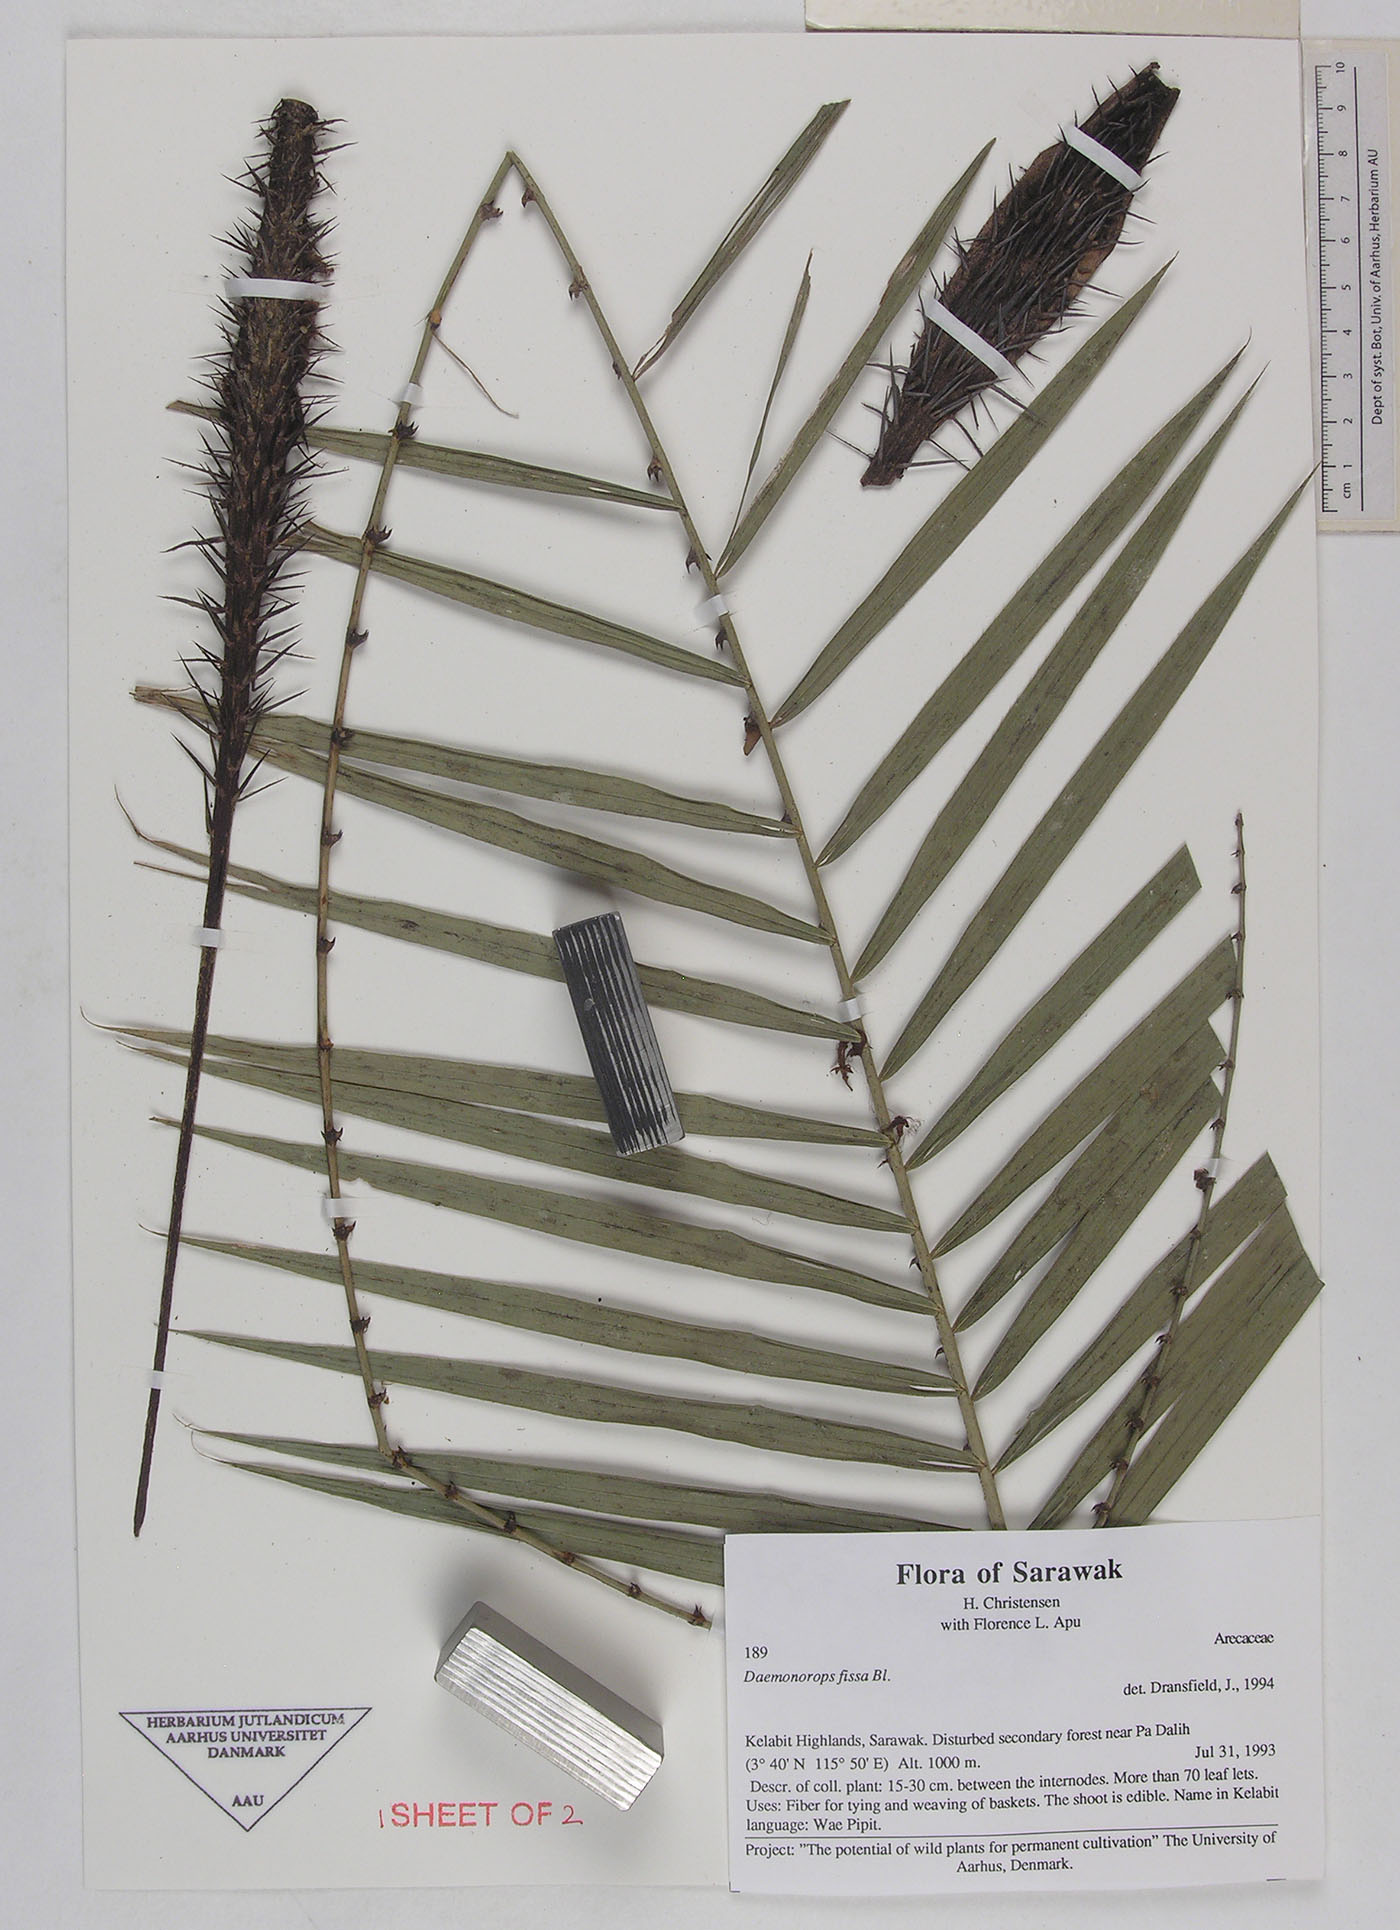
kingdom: Plantae
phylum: Tracheophyta
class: Liliopsida
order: Arecales
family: Arecaceae
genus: Calamus
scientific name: Calamus melanochaetes
